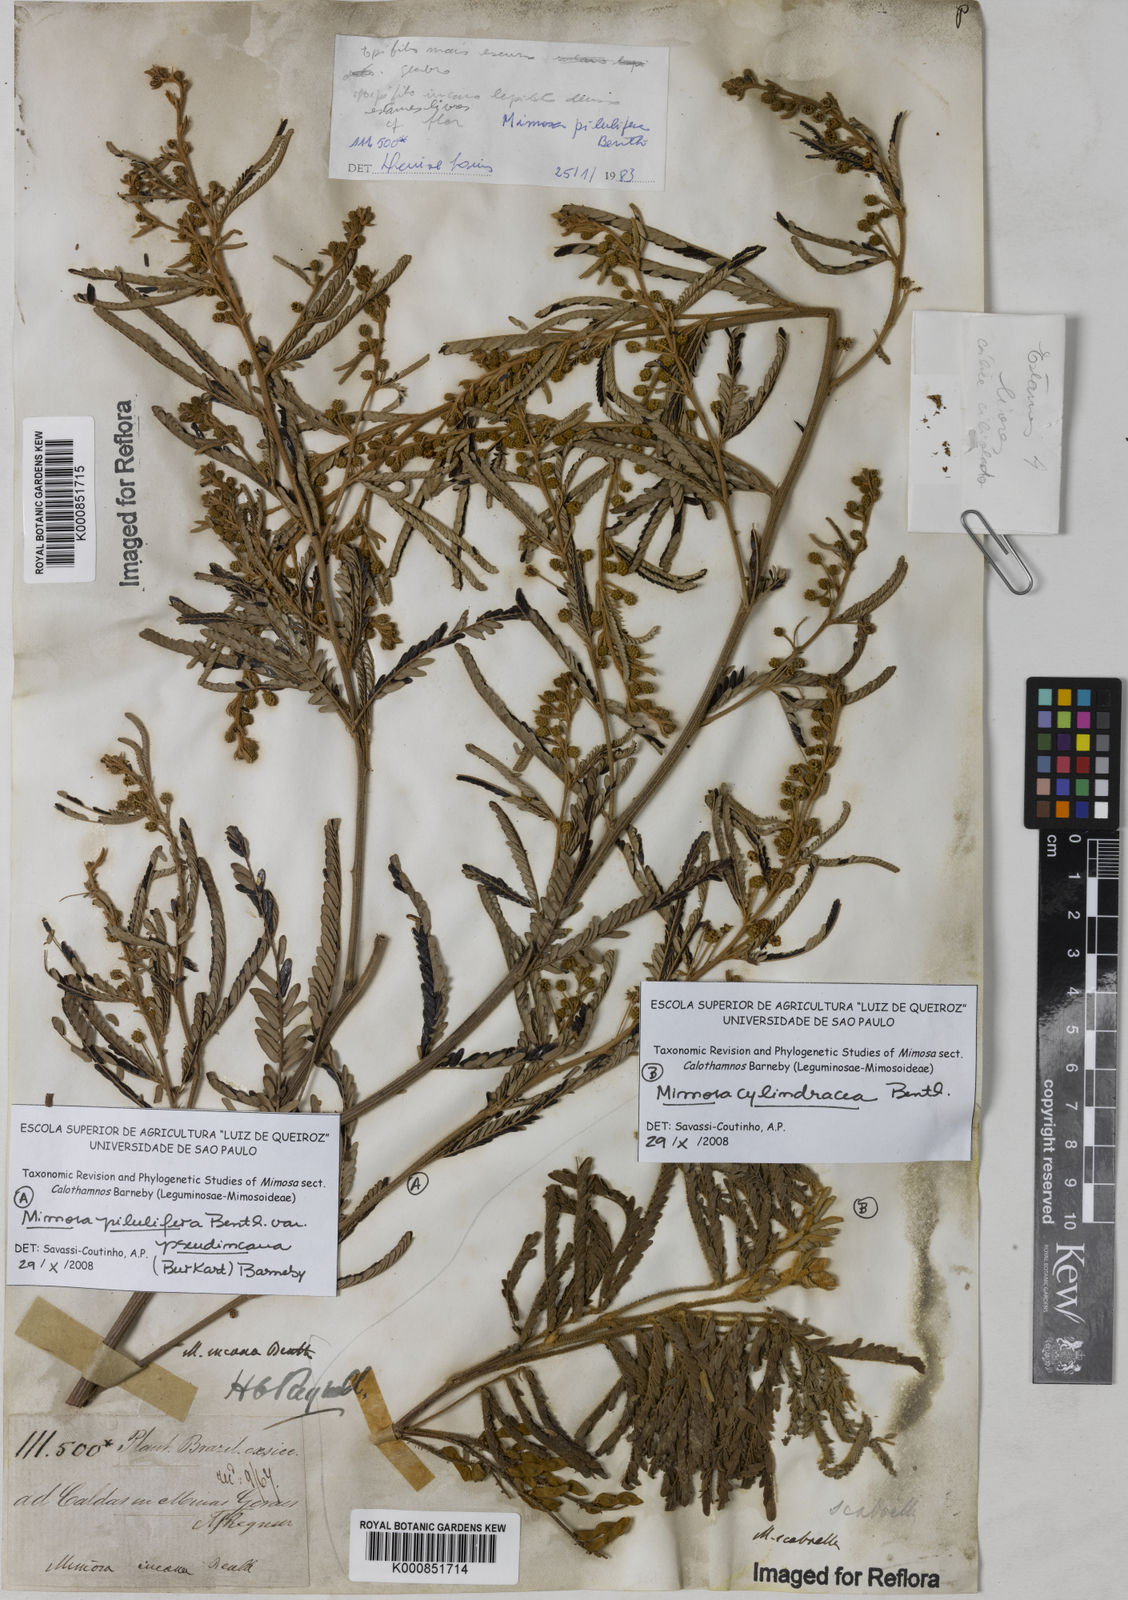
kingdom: Plantae
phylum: Tracheophyta
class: Magnoliopsida
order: Fabales
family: Fabaceae
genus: Mimosa
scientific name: Mimosa pilulifera
